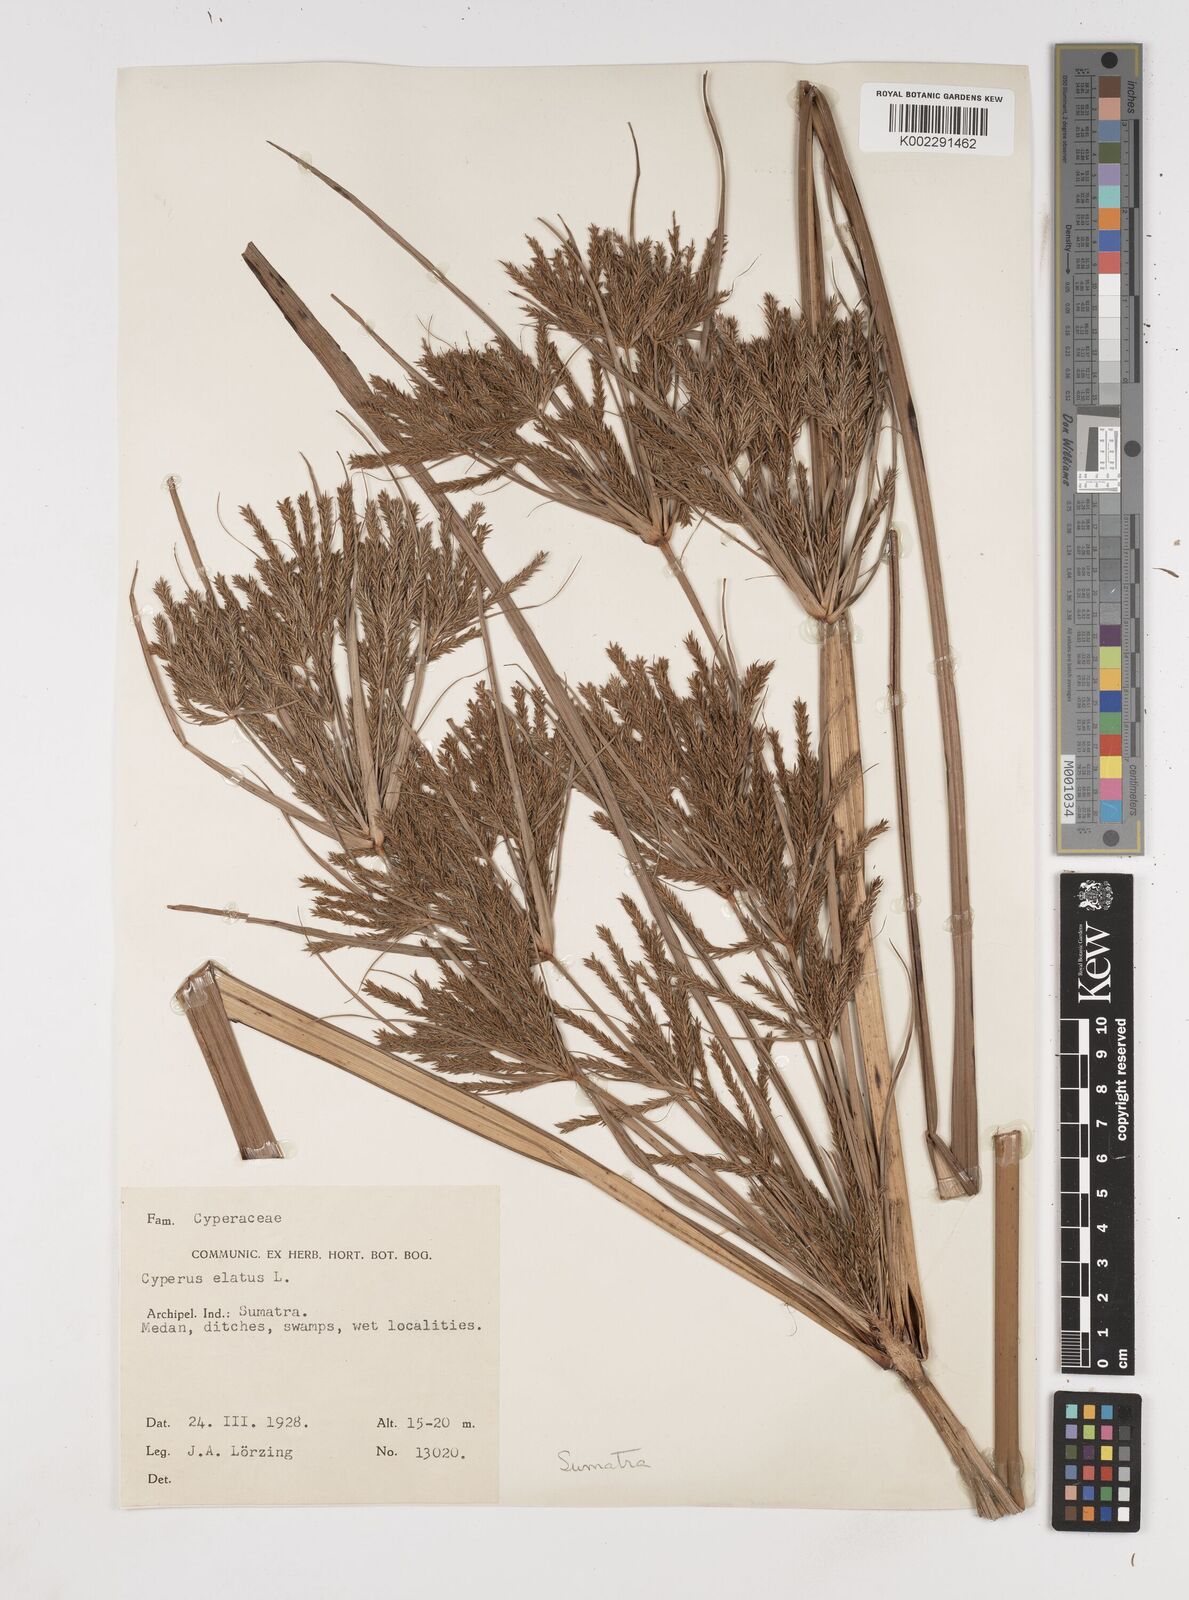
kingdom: Plantae
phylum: Tracheophyta
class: Liliopsida
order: Poales
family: Cyperaceae
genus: Cyperus
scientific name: Cyperus elatus
